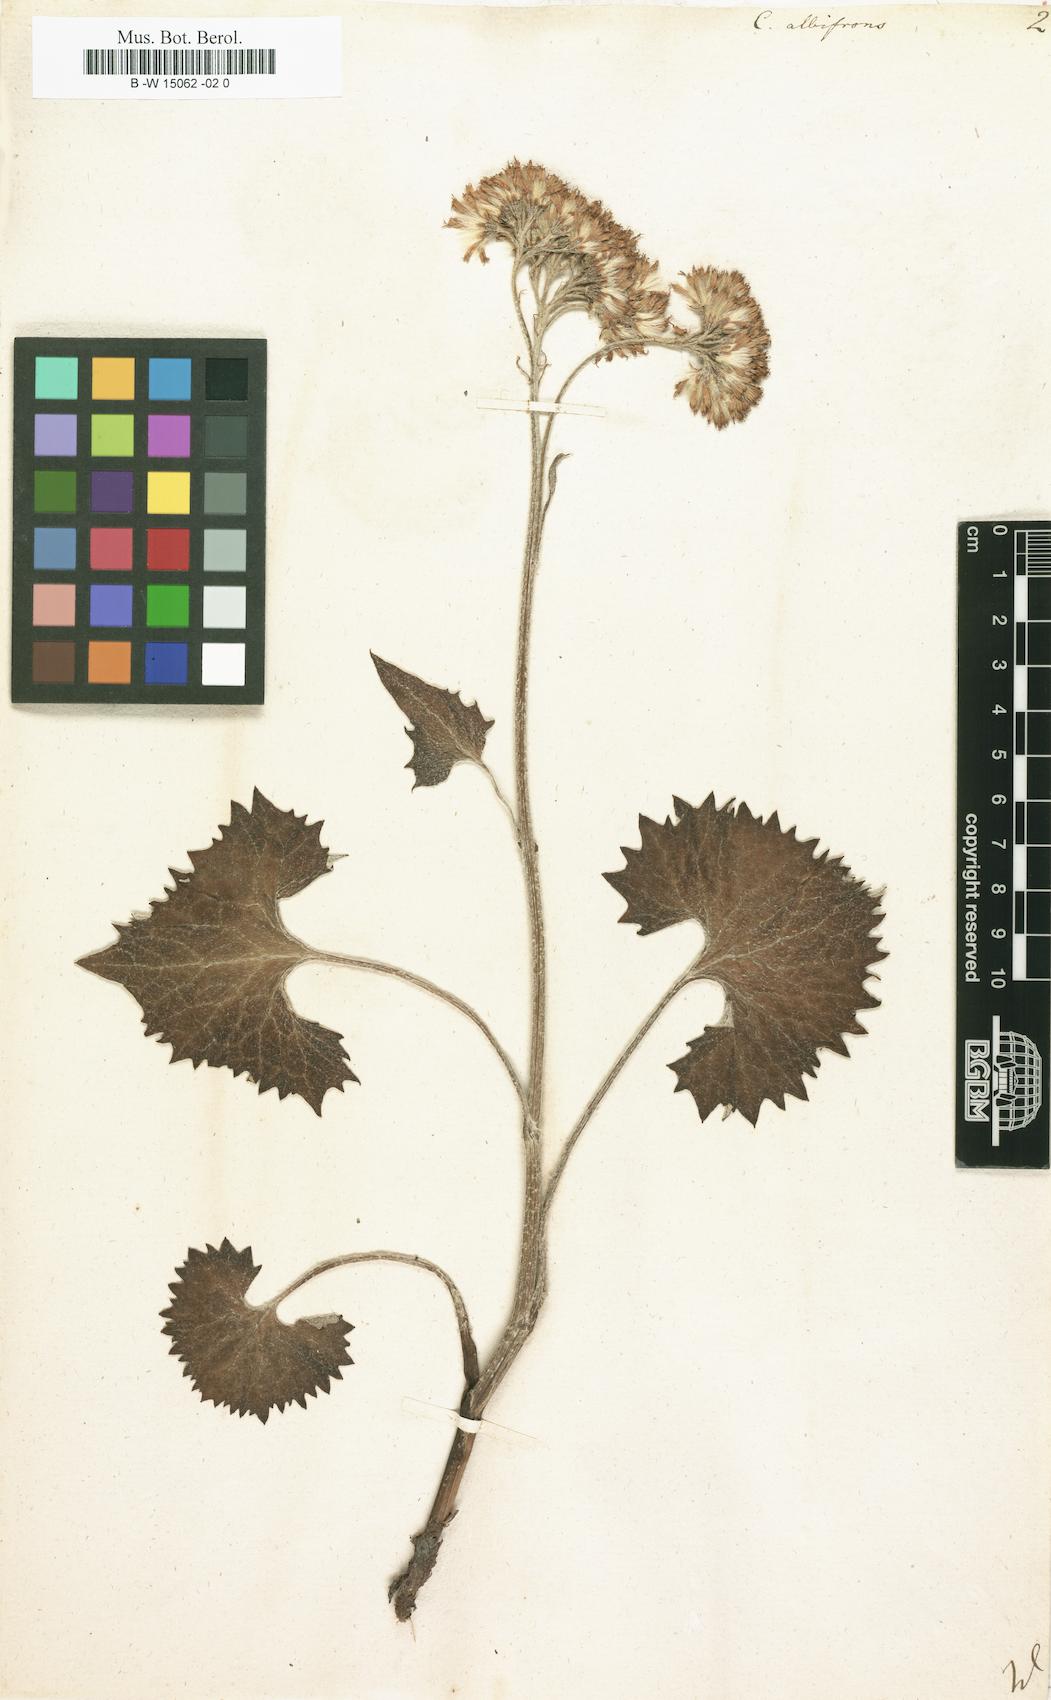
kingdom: Plantae
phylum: Tracheophyta
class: Magnoliopsida
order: Asterales
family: Asteraceae
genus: Adenostyles
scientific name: Adenostyles alliariae
